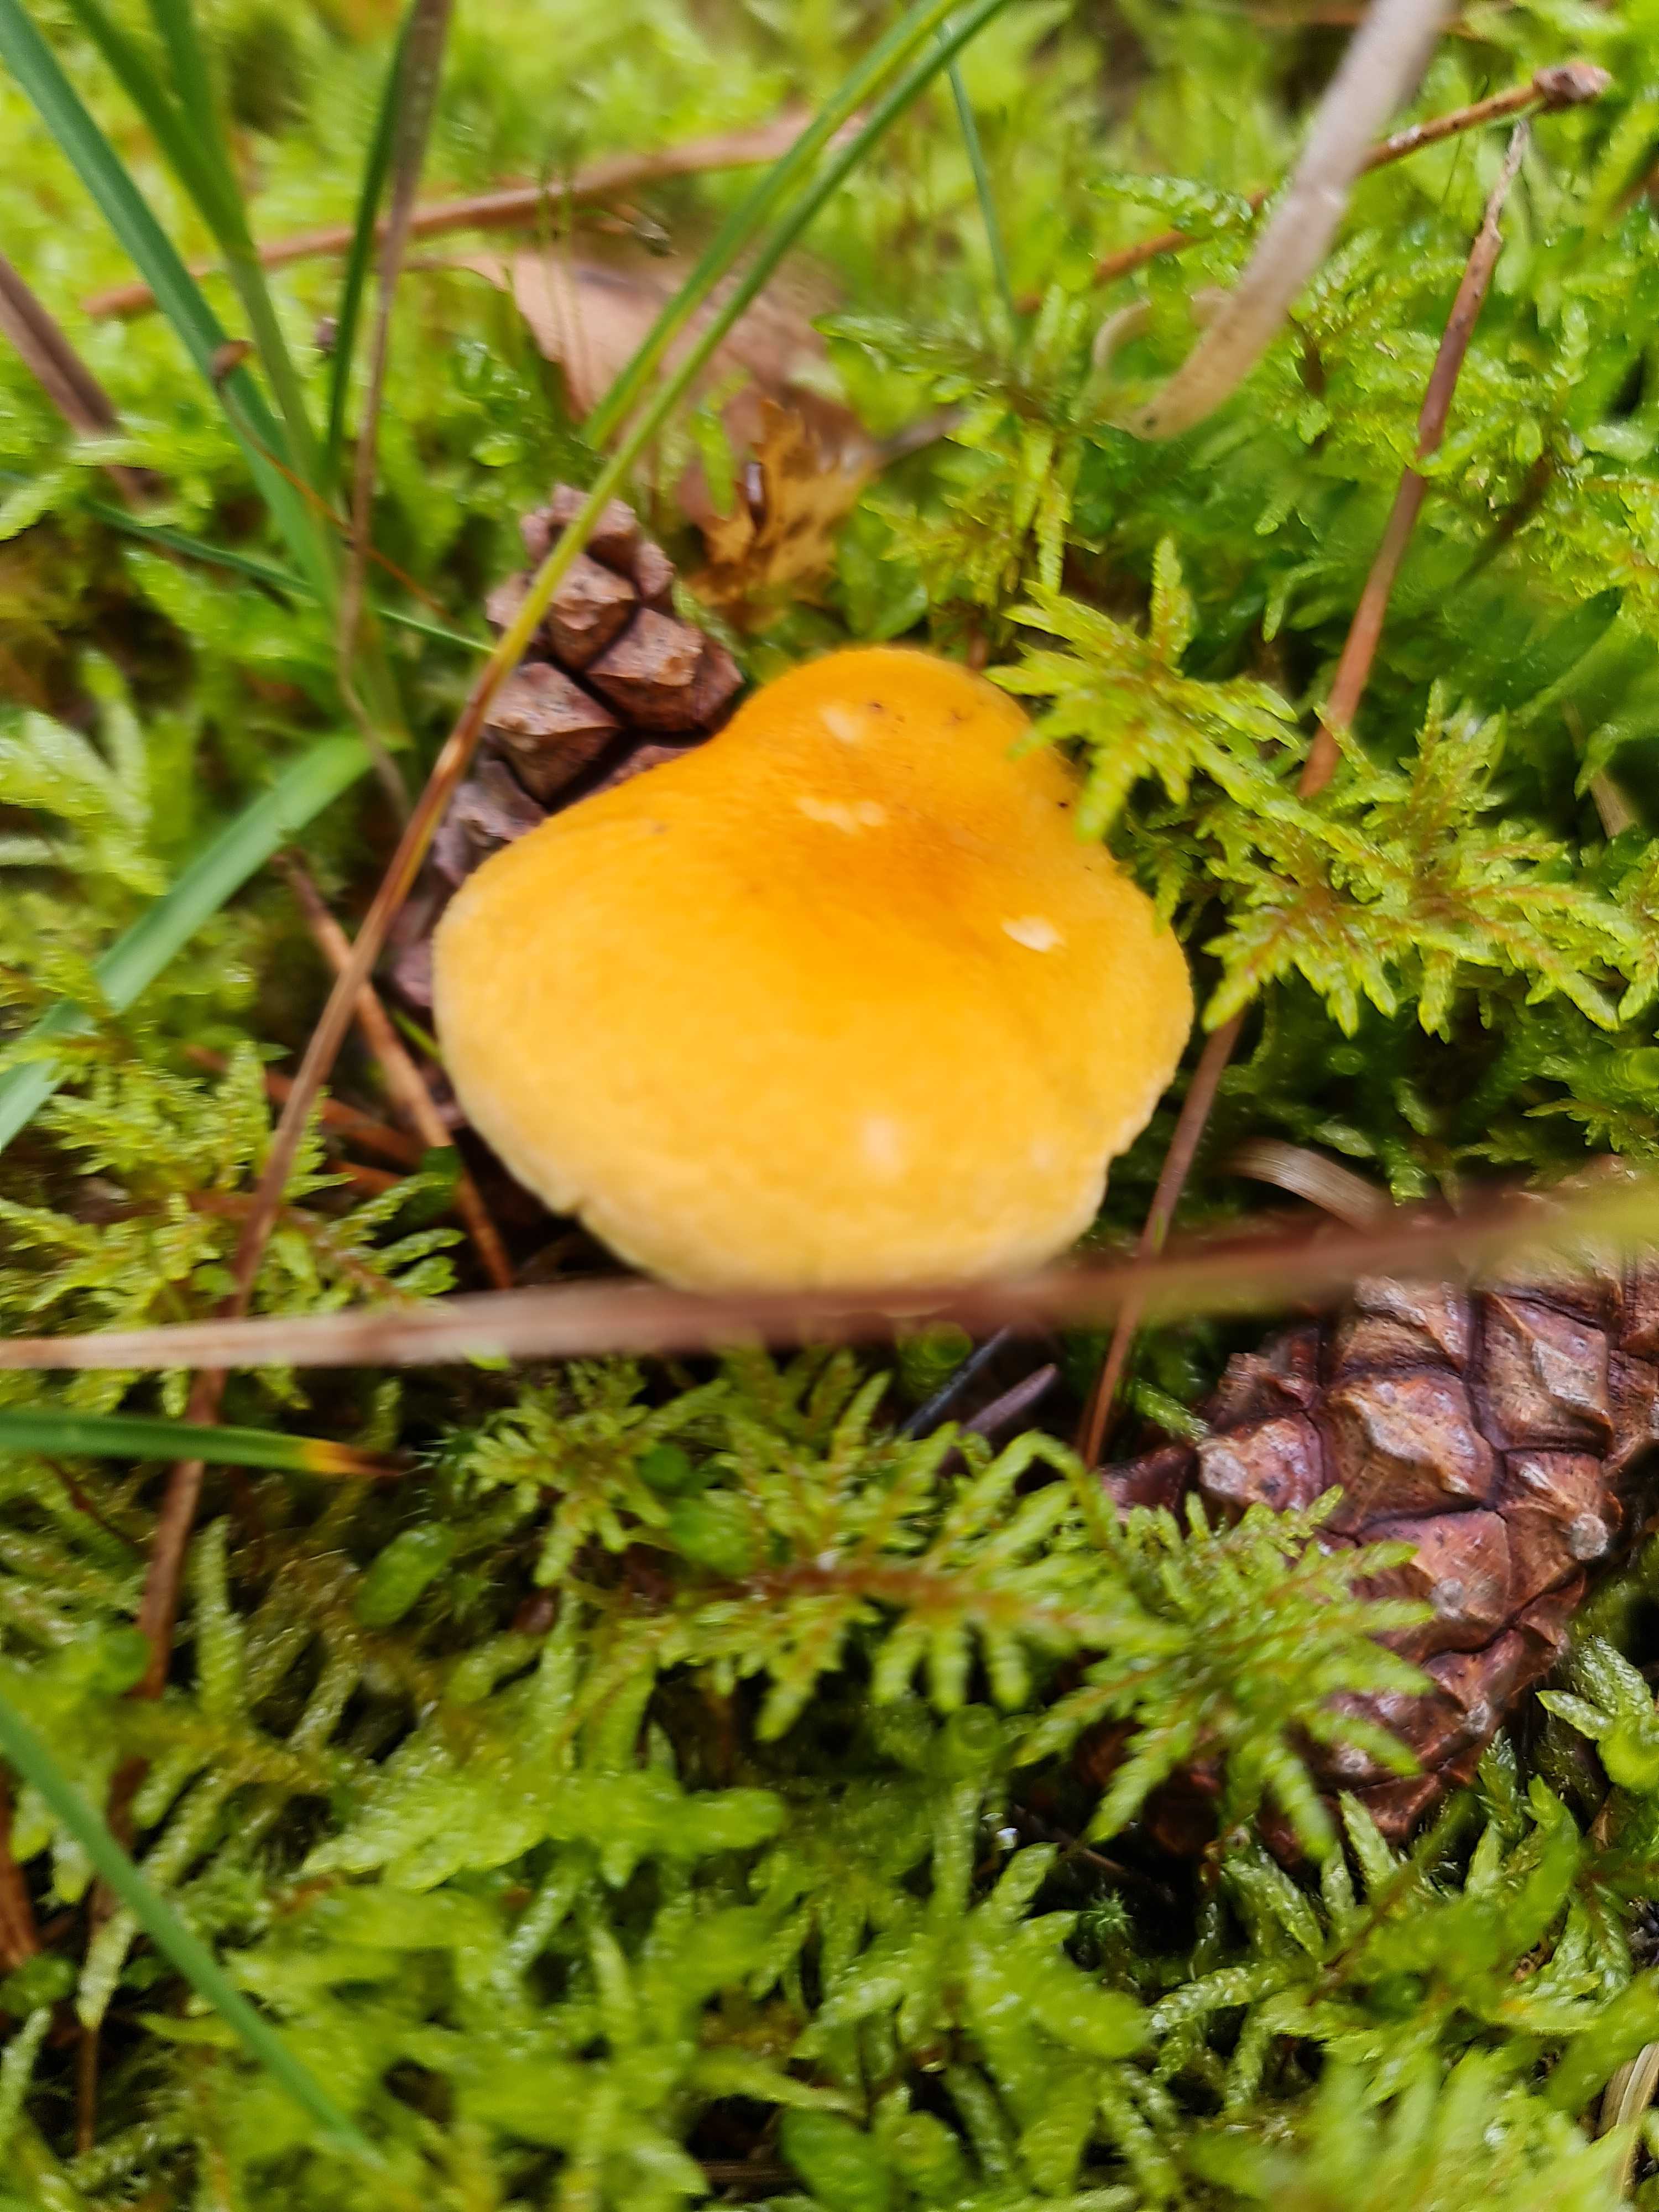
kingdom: Fungi
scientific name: Fungi
